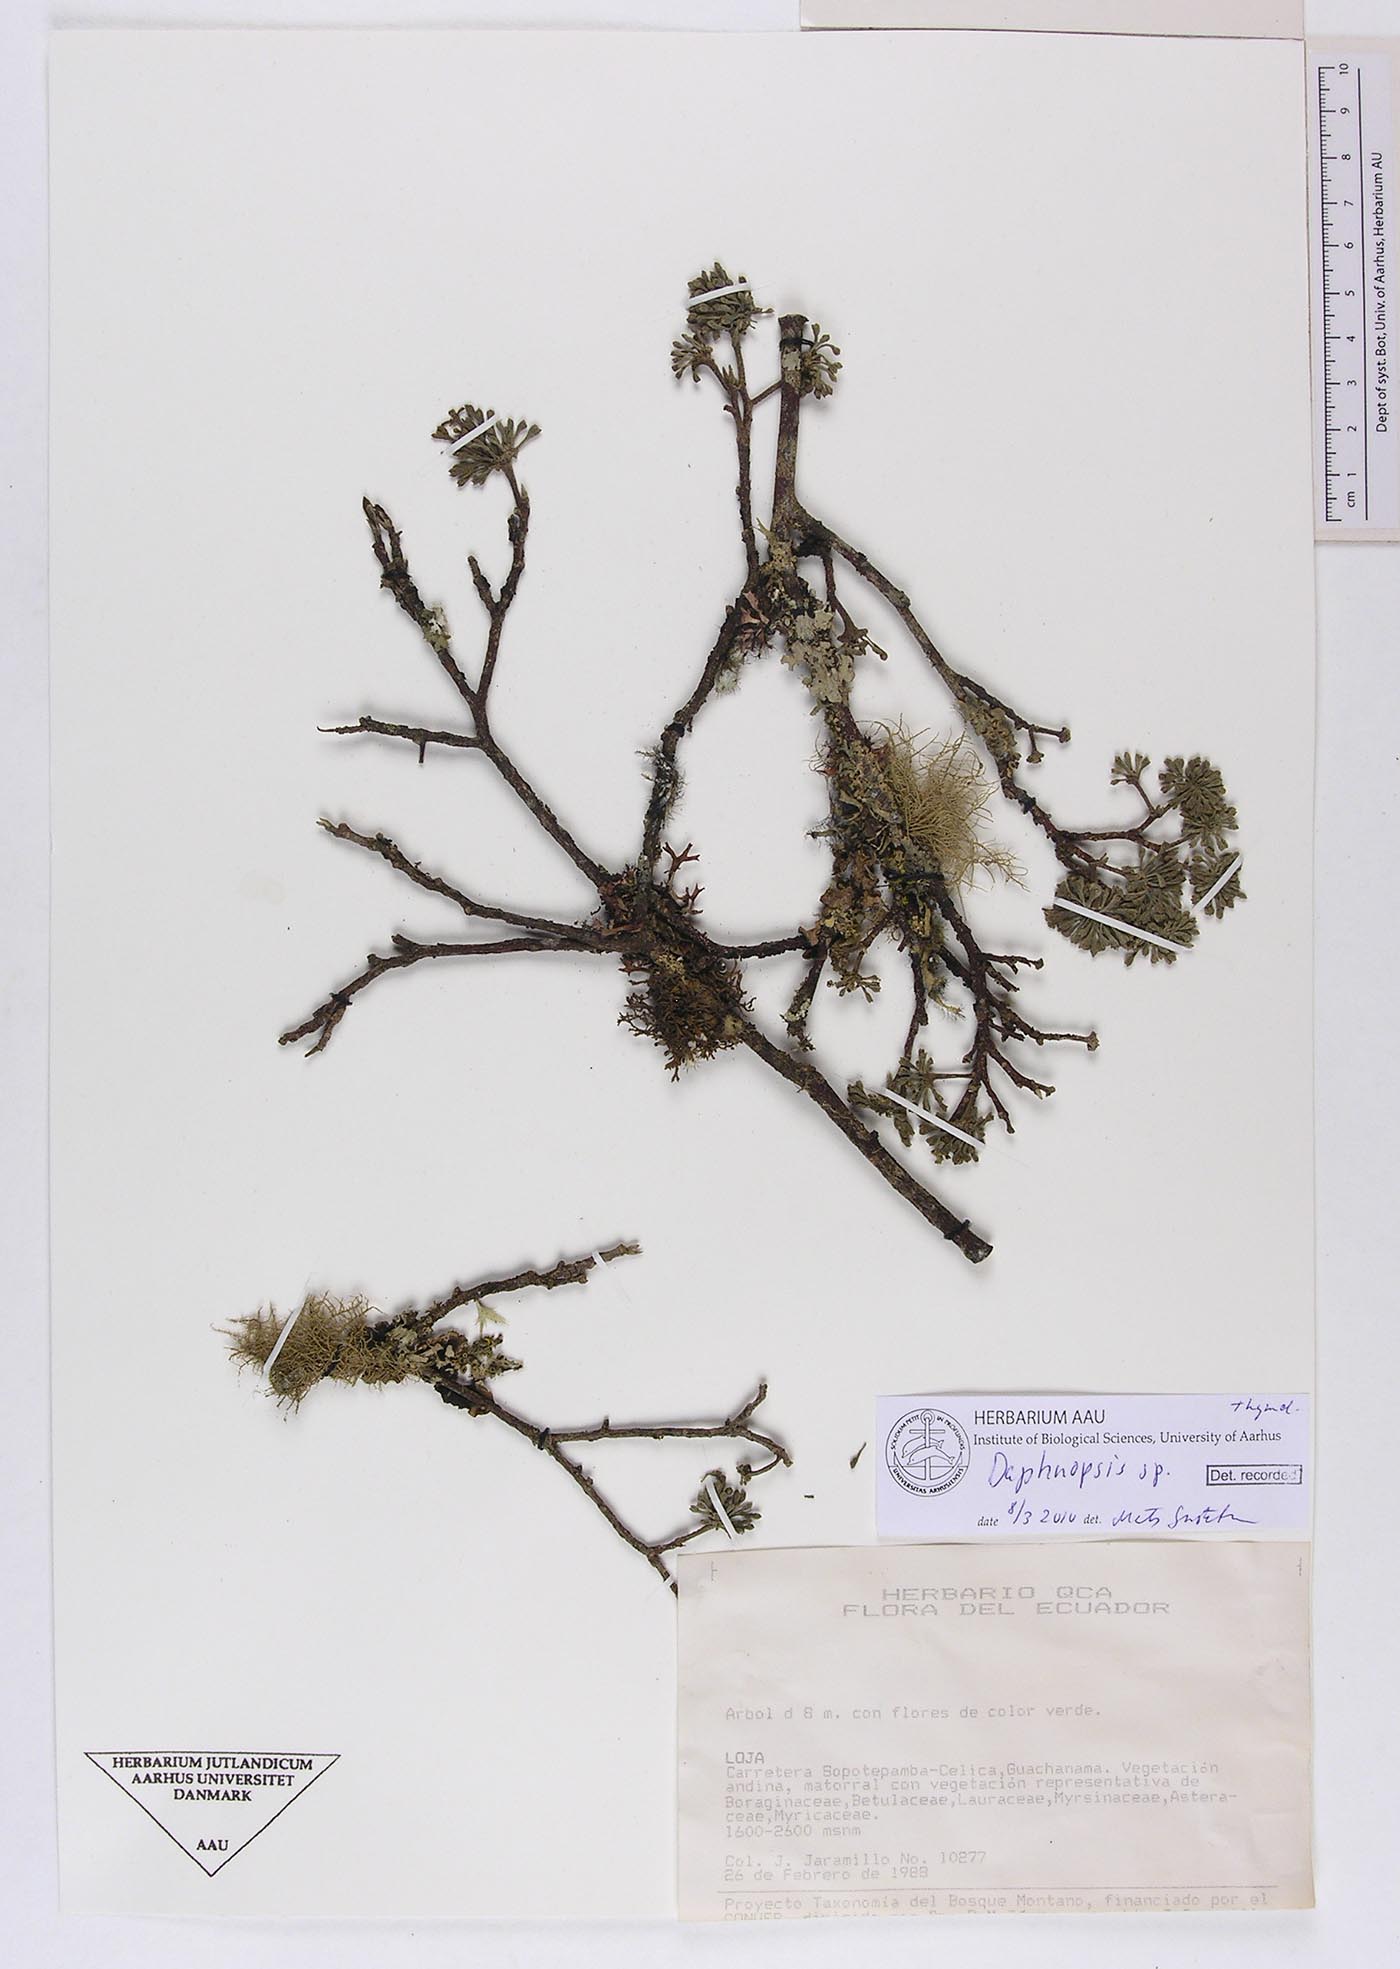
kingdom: Plantae
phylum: Tracheophyta
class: Magnoliopsida
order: Malvales
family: Thymelaeaceae
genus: Daphnopsis
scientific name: Daphnopsis
